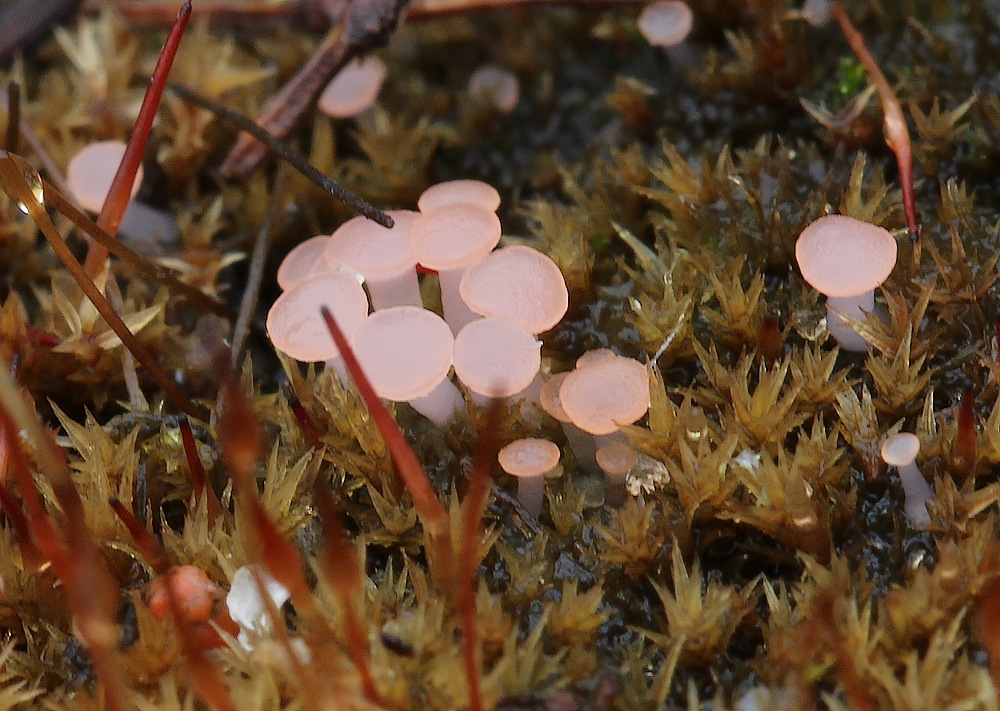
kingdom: Fungi
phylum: Ascomycota
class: Leotiomycetes
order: Helotiales
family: Hyaloscyphaceae
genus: Roseodiscus
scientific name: Roseodiscus formosus
